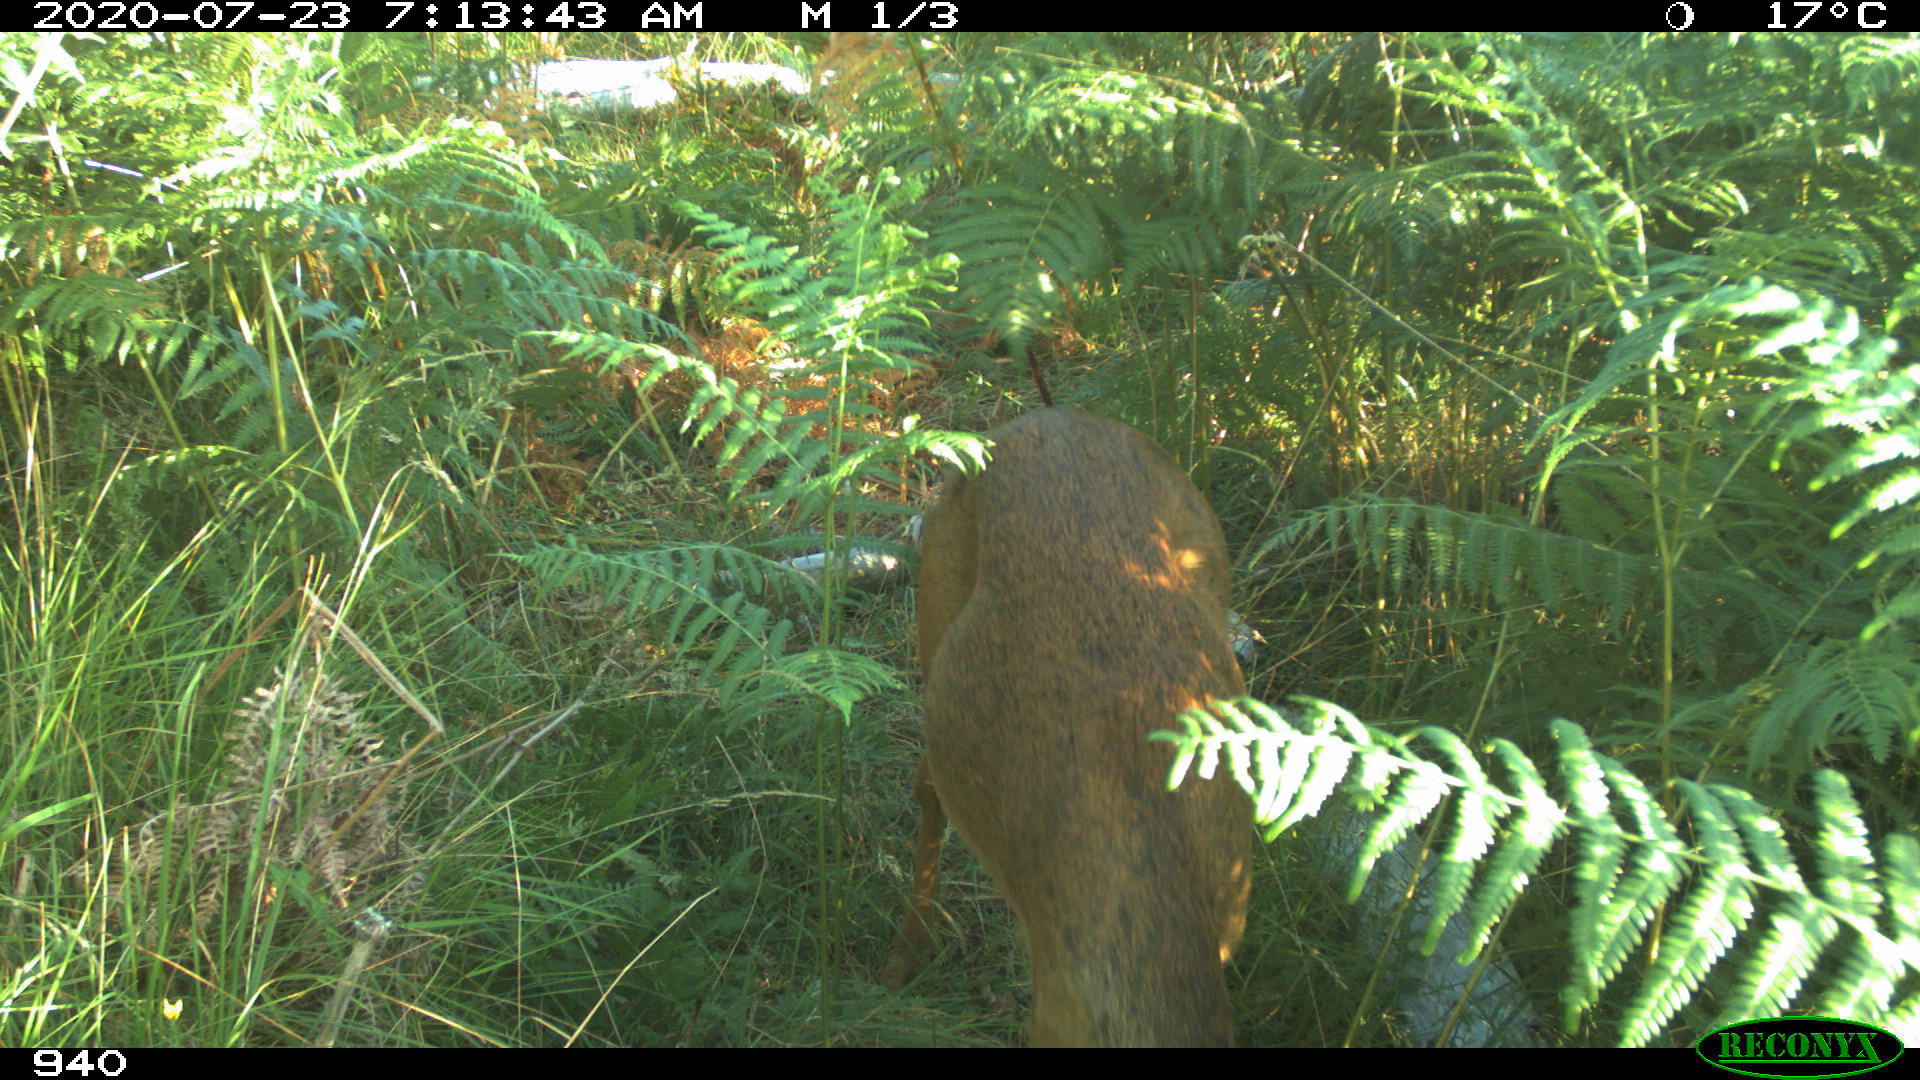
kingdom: Animalia
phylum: Chordata
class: Mammalia
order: Artiodactyla
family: Cervidae
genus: Capreolus
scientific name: Capreolus capreolus
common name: Western roe deer
